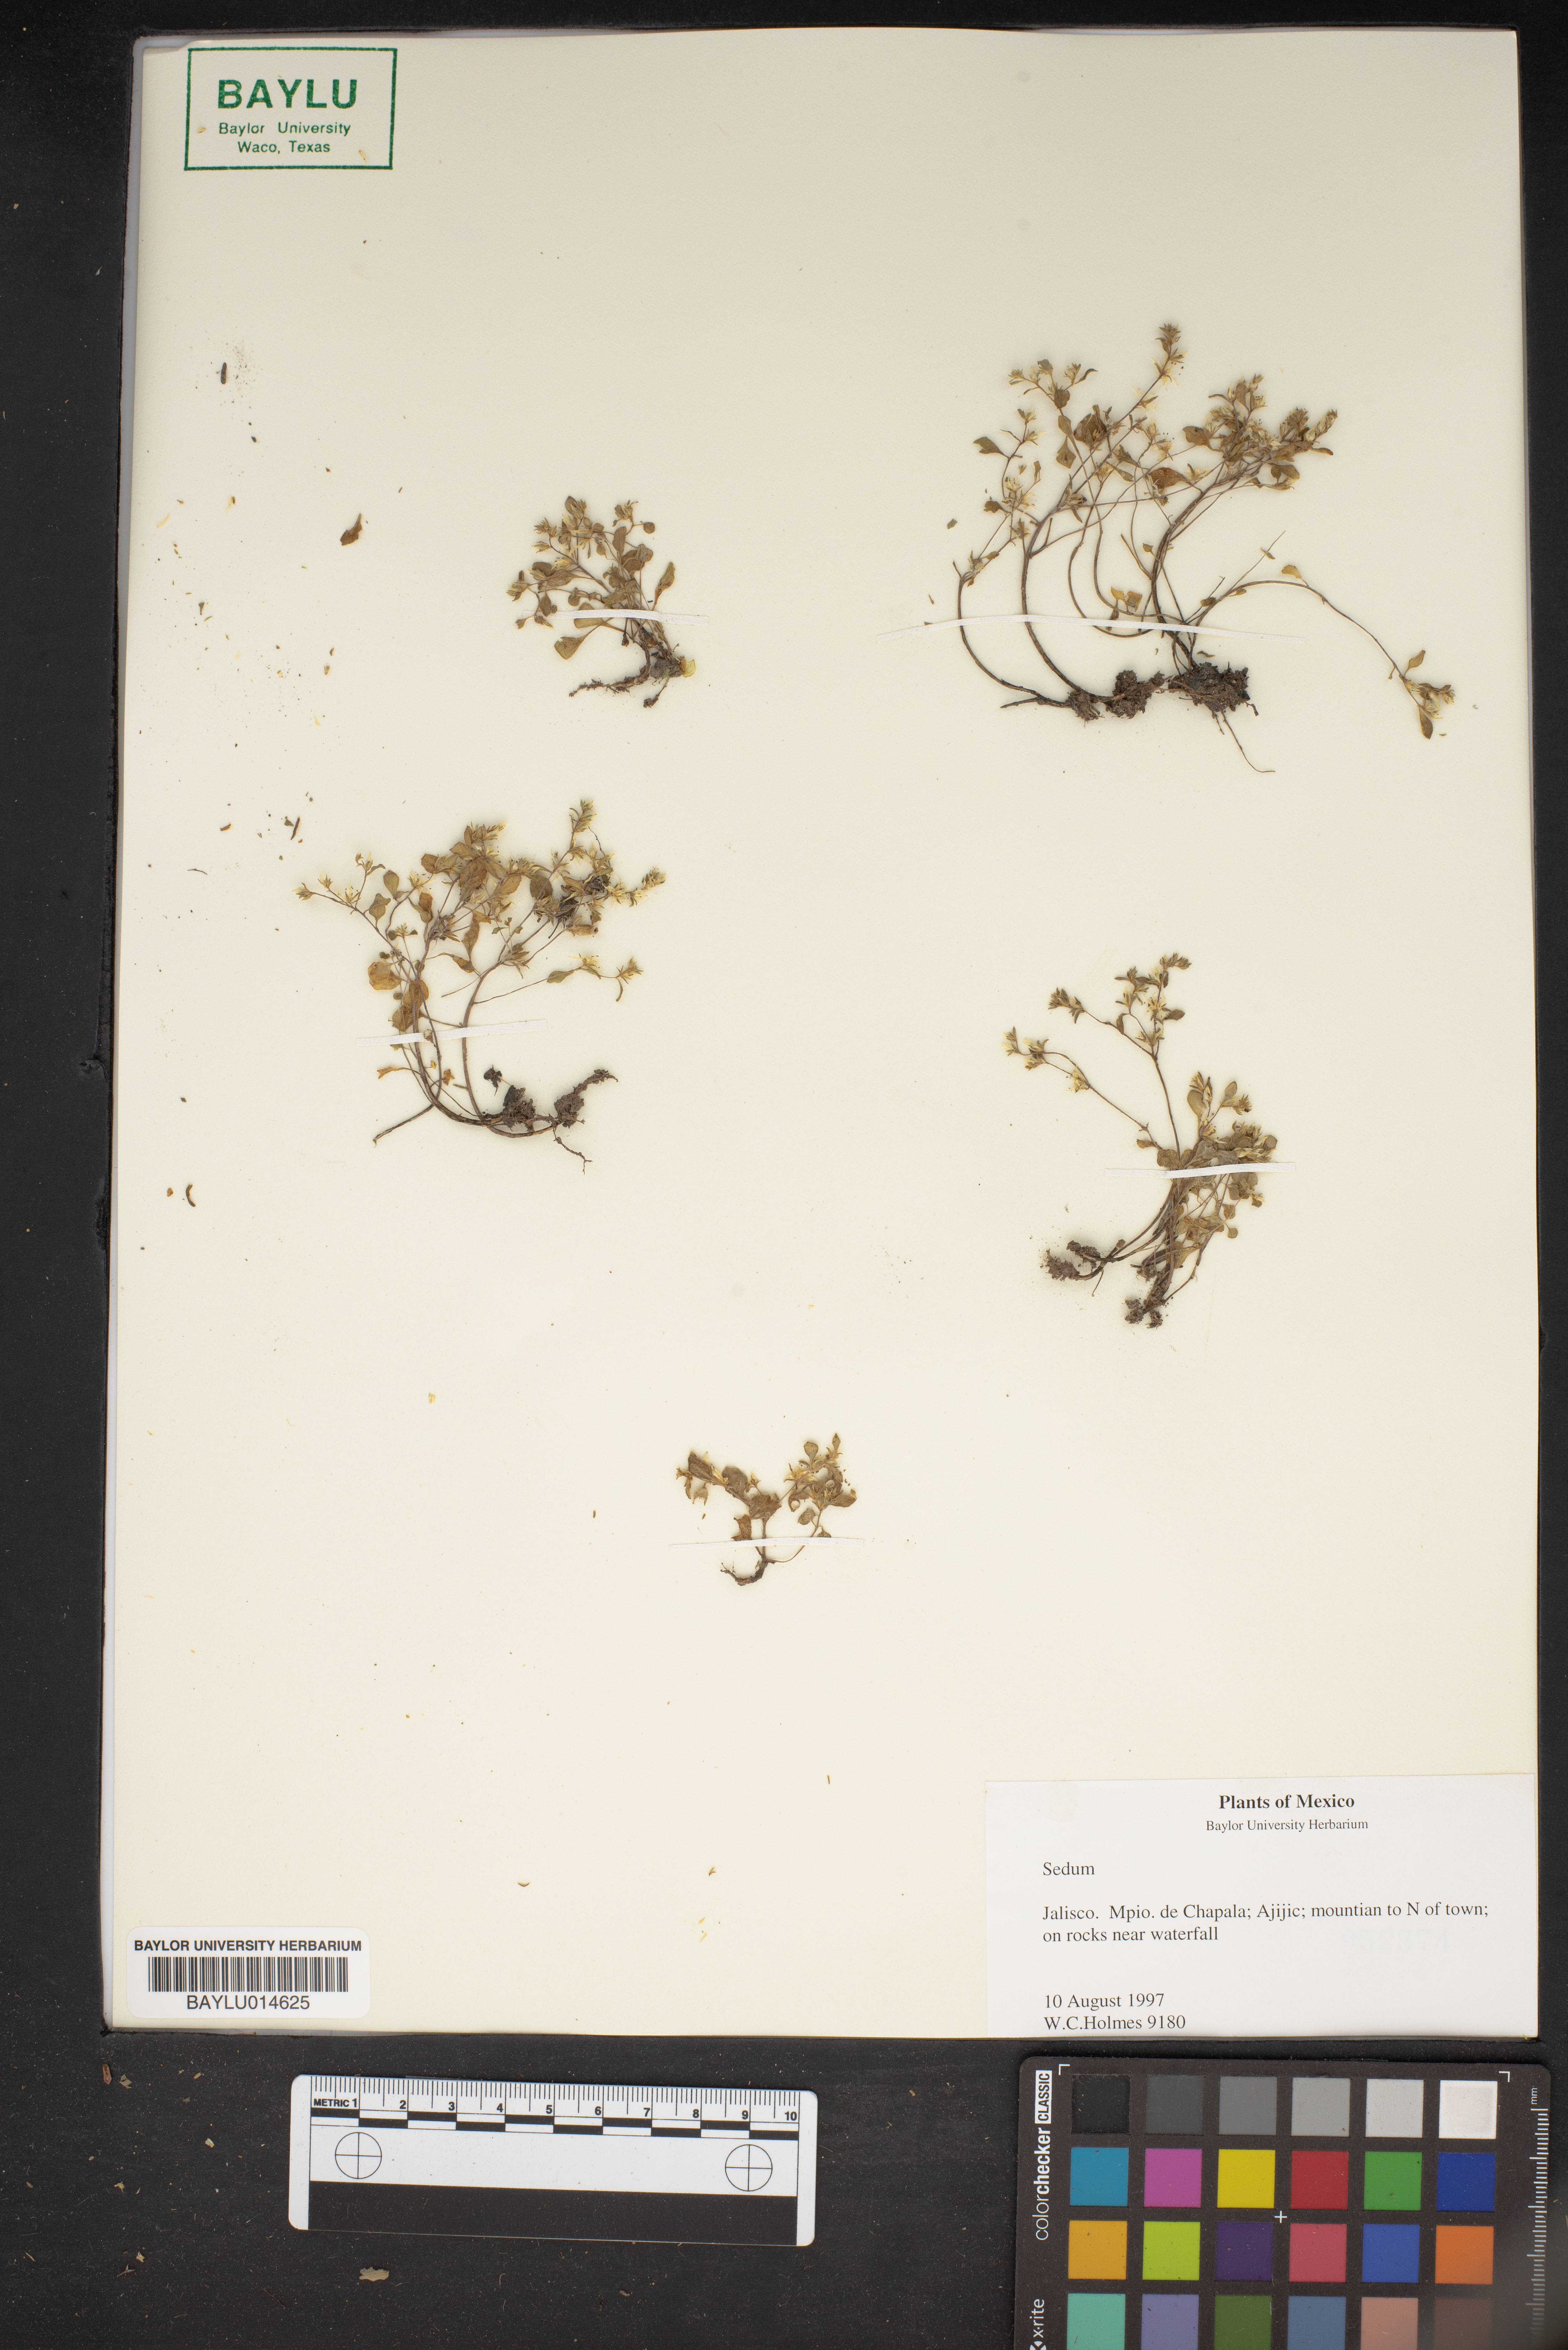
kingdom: Plantae
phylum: Tracheophyta
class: Magnoliopsida
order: Saxifragales
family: Crassulaceae
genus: Sedum
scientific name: Sedum
